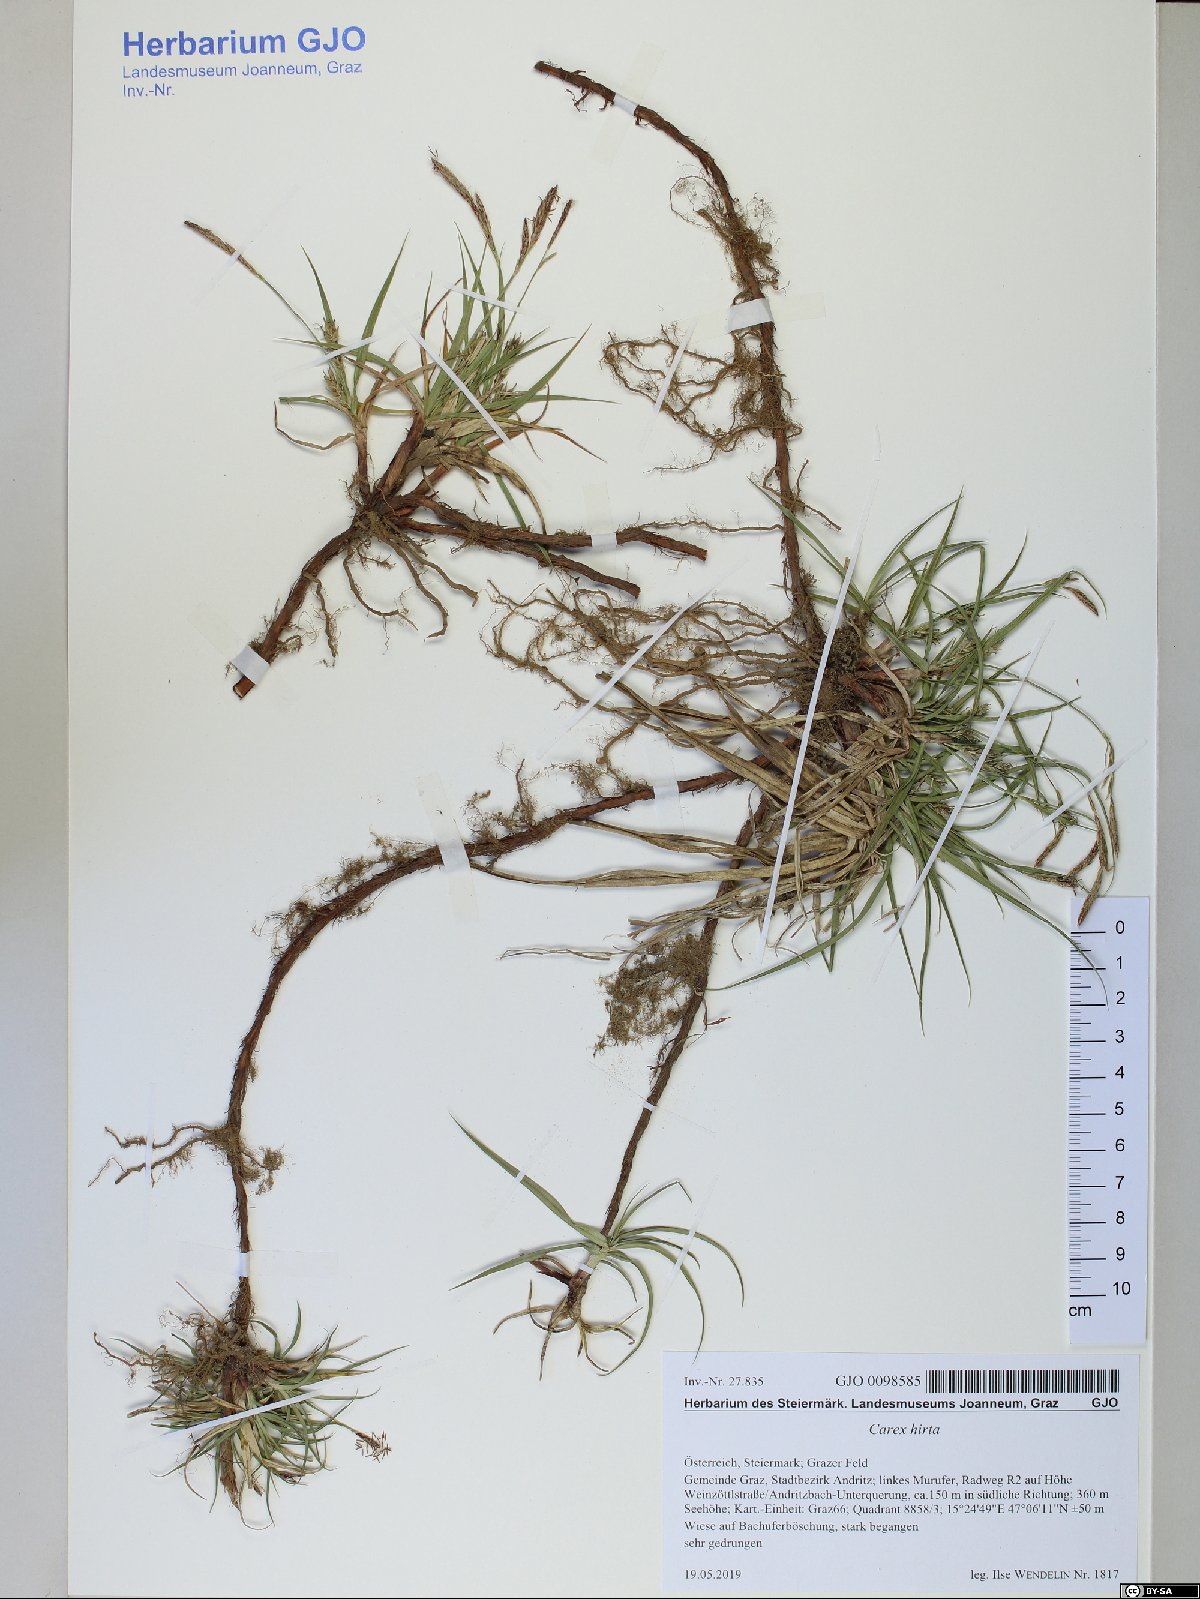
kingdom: Plantae
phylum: Tracheophyta
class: Liliopsida
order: Poales
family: Cyperaceae
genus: Carex
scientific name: Carex hirta
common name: Hairy sedge
